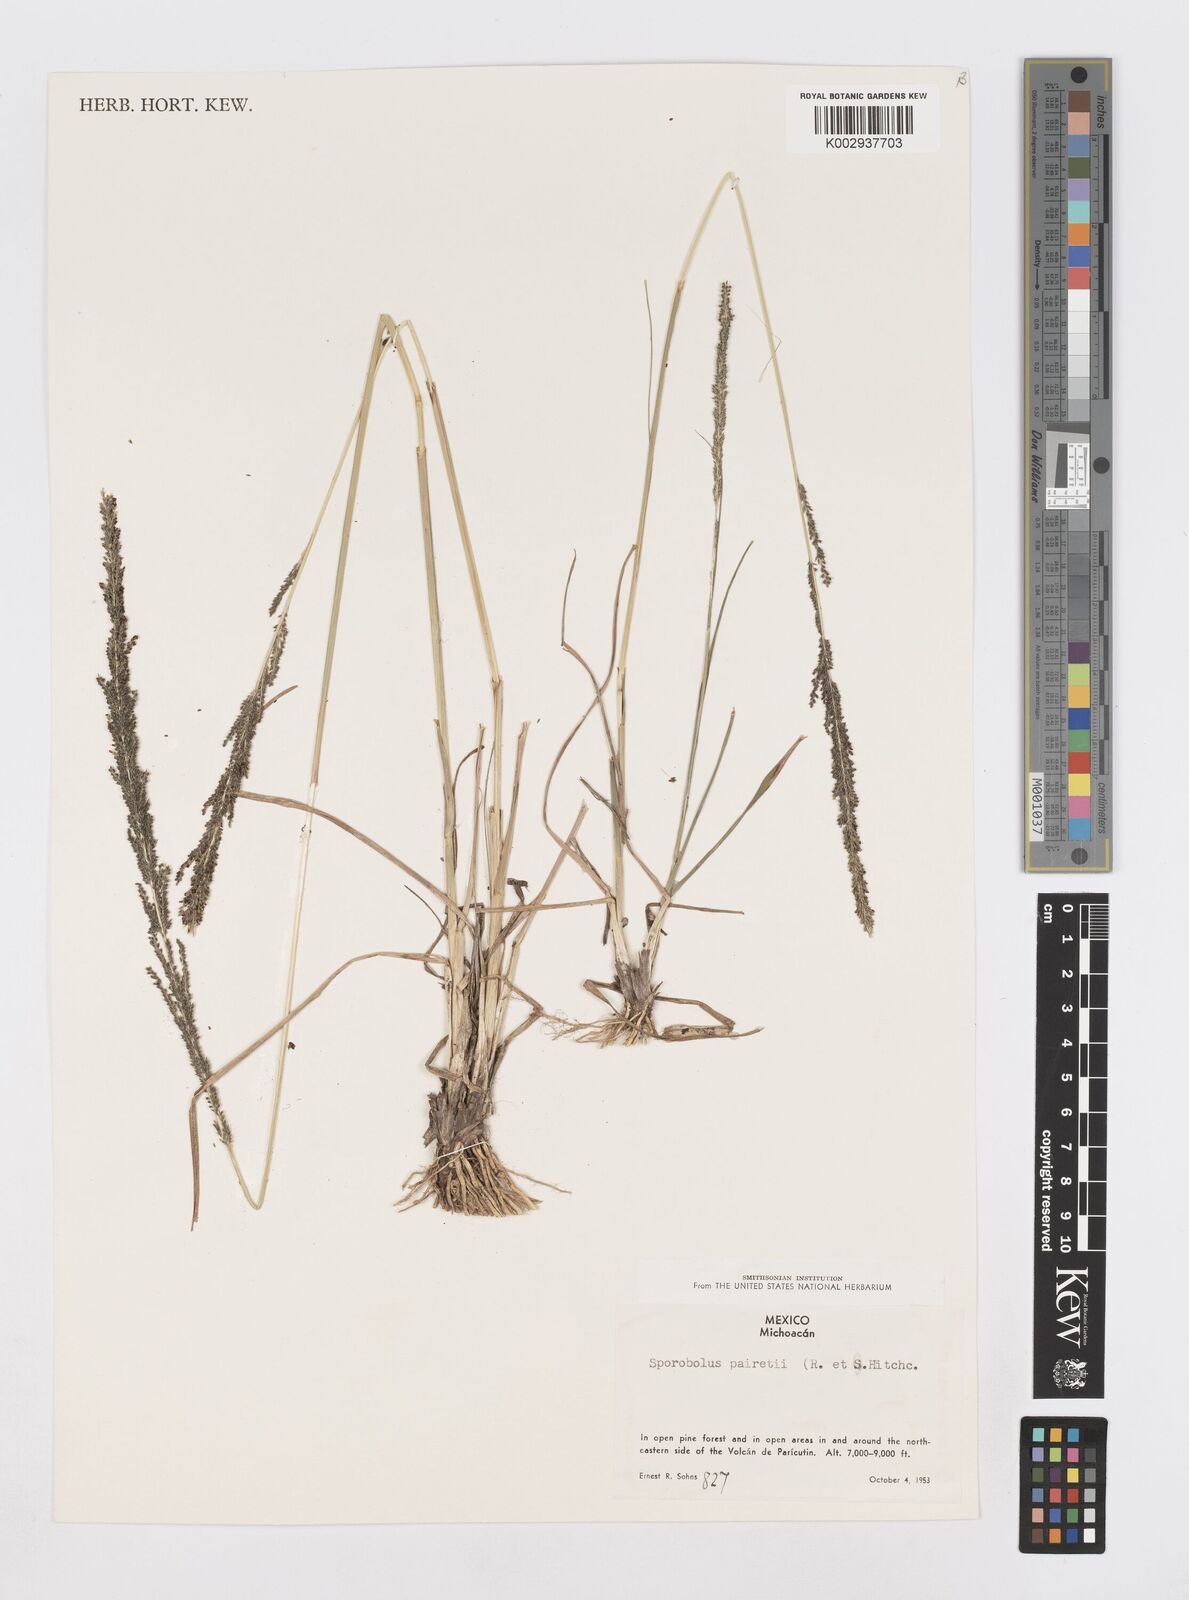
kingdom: Plantae
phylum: Tracheophyta
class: Liliopsida
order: Poales
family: Poaceae
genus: Sporobolus
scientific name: Sporobolus junceus
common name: Lizard grass
